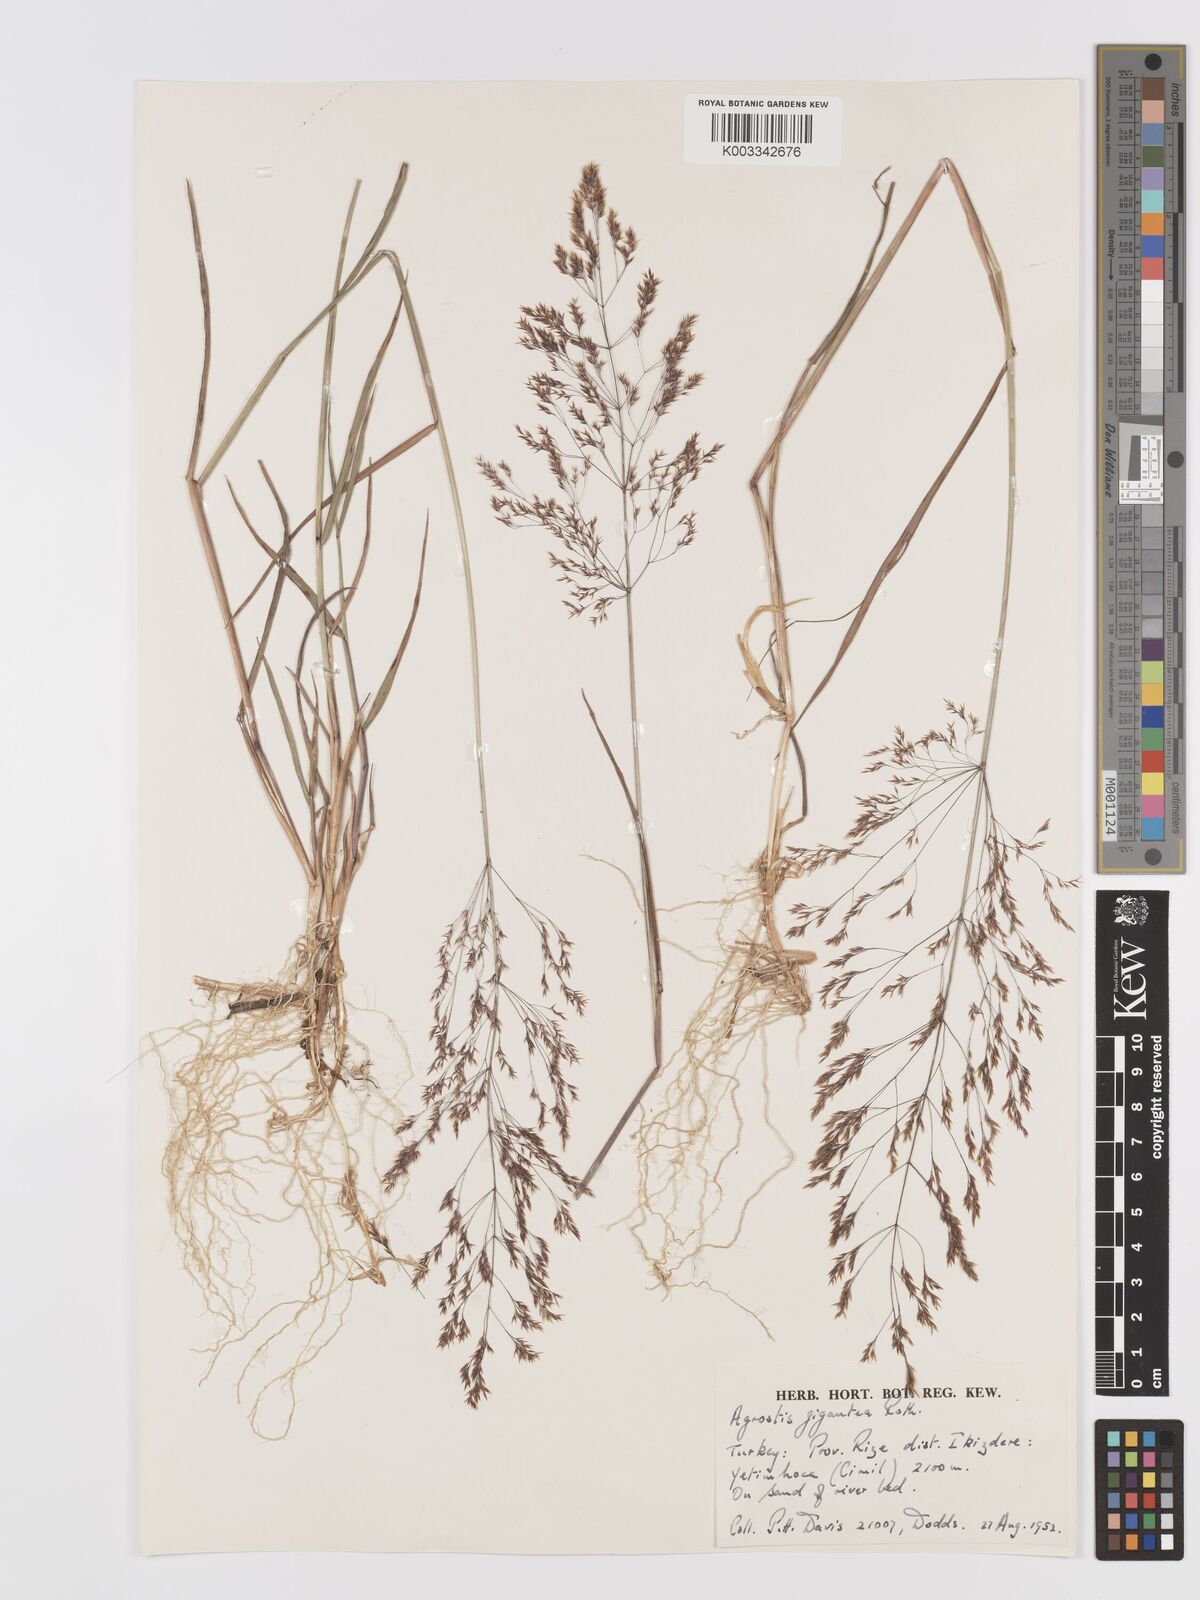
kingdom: Plantae
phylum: Tracheophyta
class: Liliopsida
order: Poales
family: Poaceae
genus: Agrostis
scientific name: Agrostis gigantea
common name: Black bent
